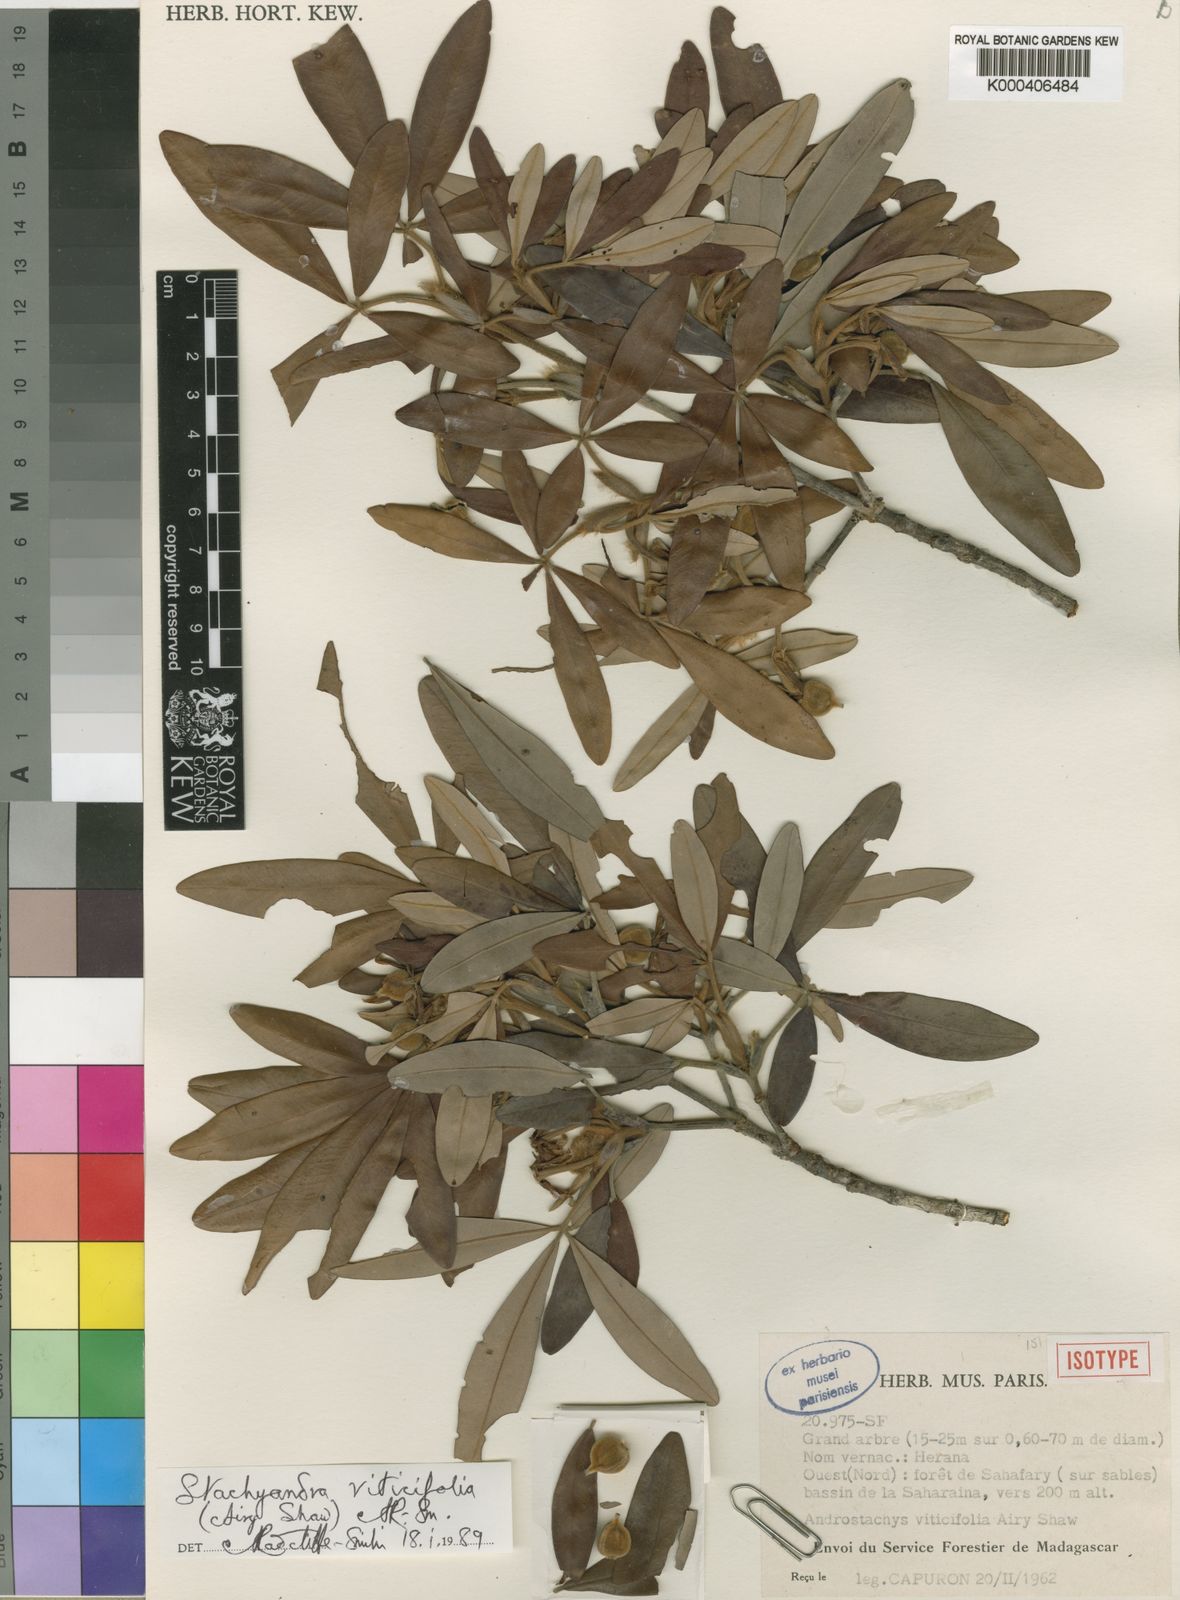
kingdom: Plantae
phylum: Tracheophyta
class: Magnoliopsida
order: Malpighiales
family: Picrodendraceae
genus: Stachyandra
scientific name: Stachyandra viticifolia
